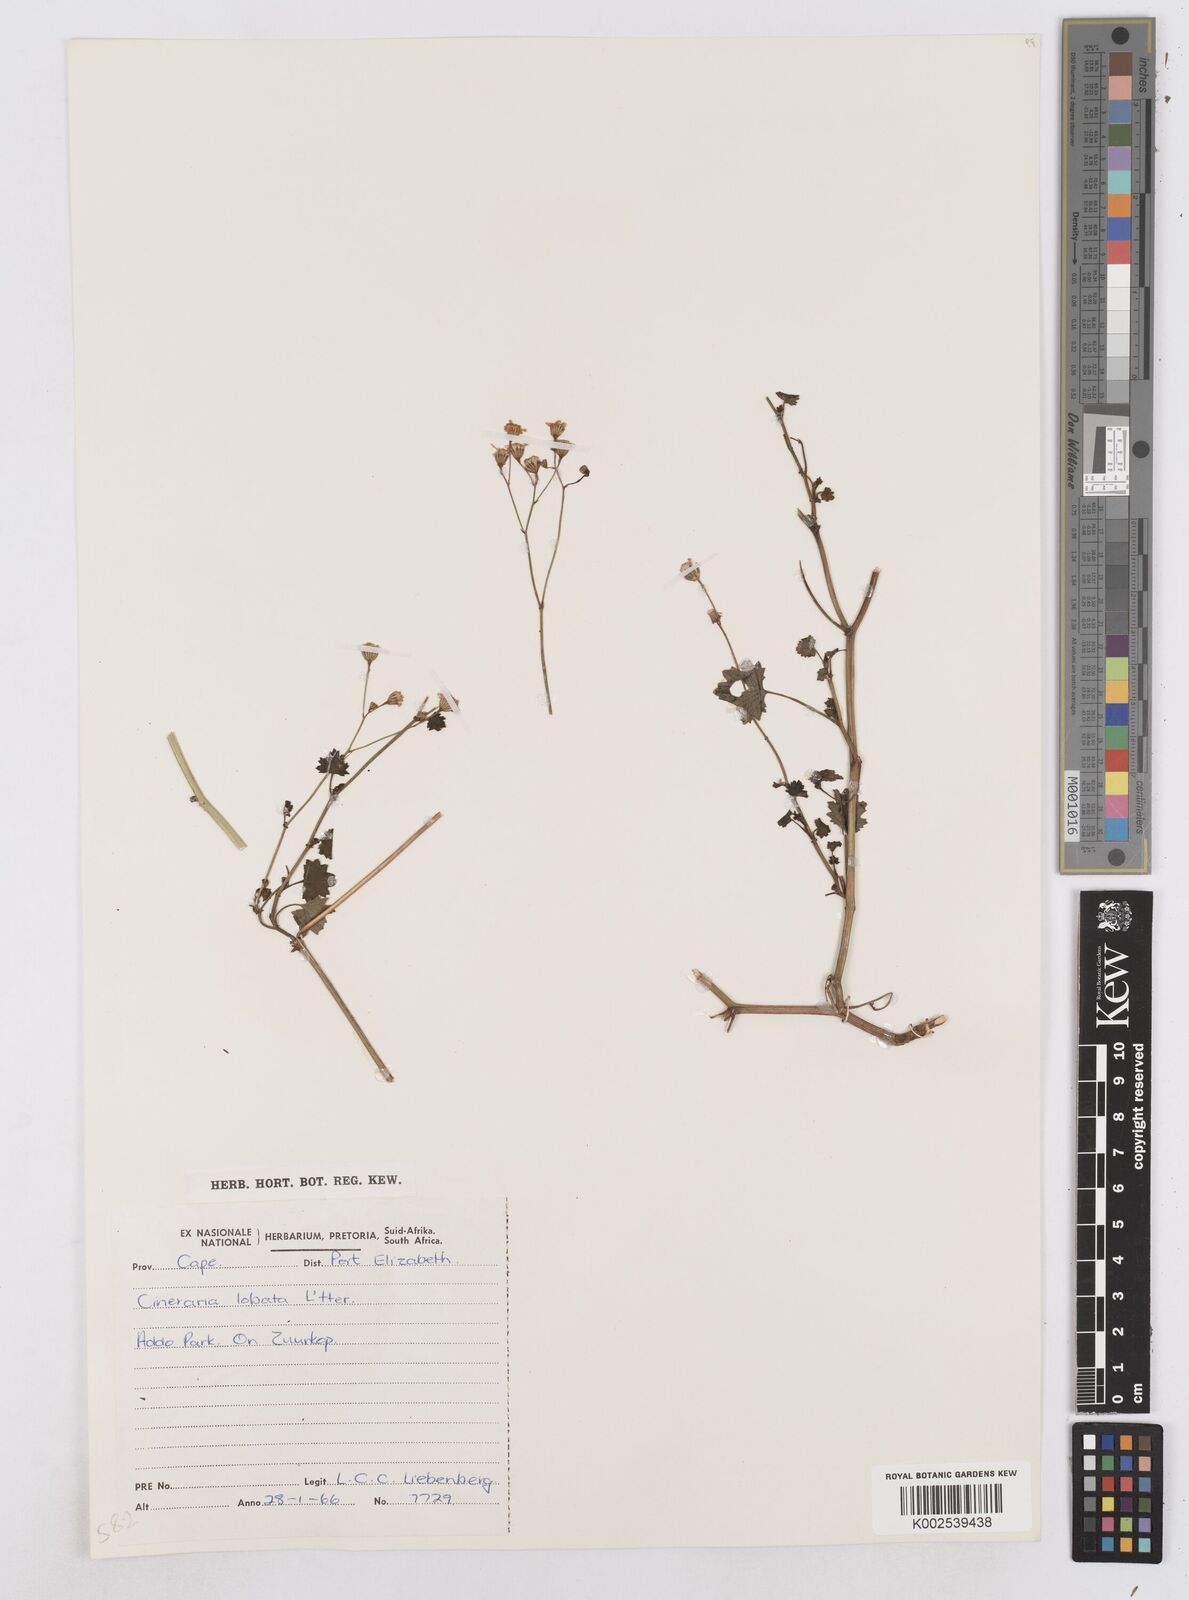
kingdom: Plantae
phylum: Tracheophyta
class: Magnoliopsida
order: Asterales
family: Asteraceae
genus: Cineraria
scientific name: Cineraria
